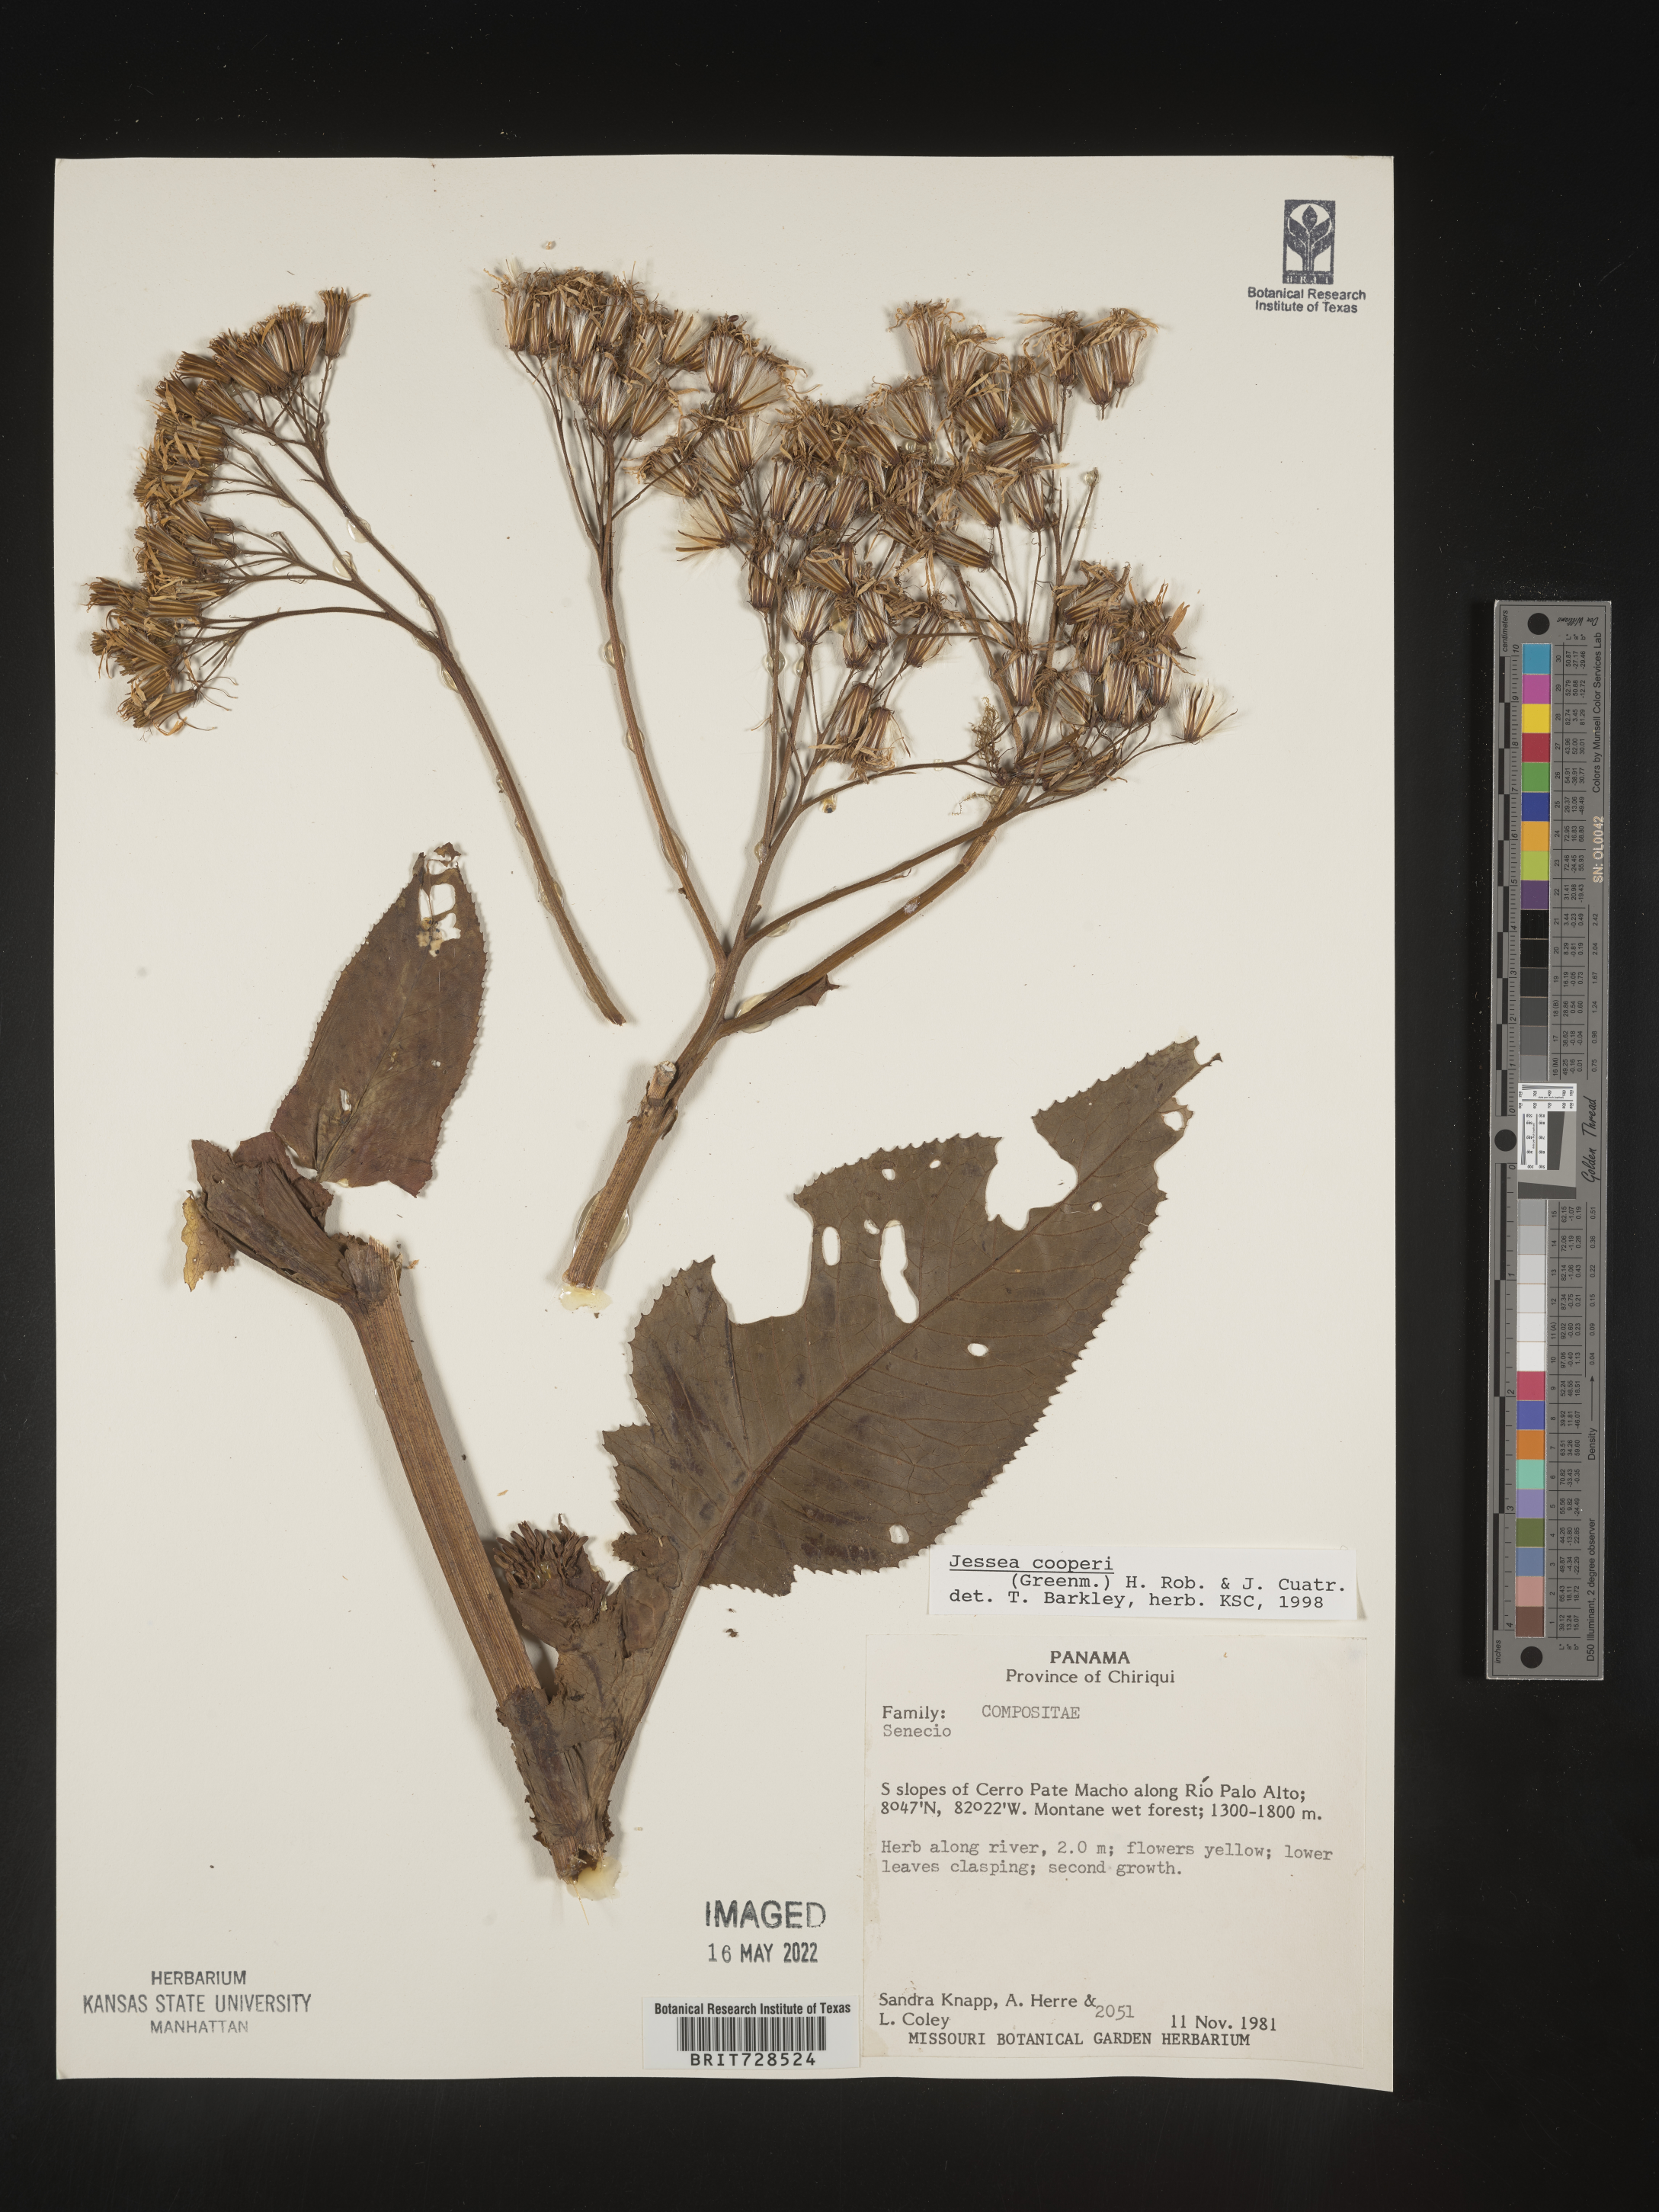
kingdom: Plantae
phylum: Tracheophyta
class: Magnoliopsida
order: Asterales
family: Asteraceae
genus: Jessea
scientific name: Jessea
